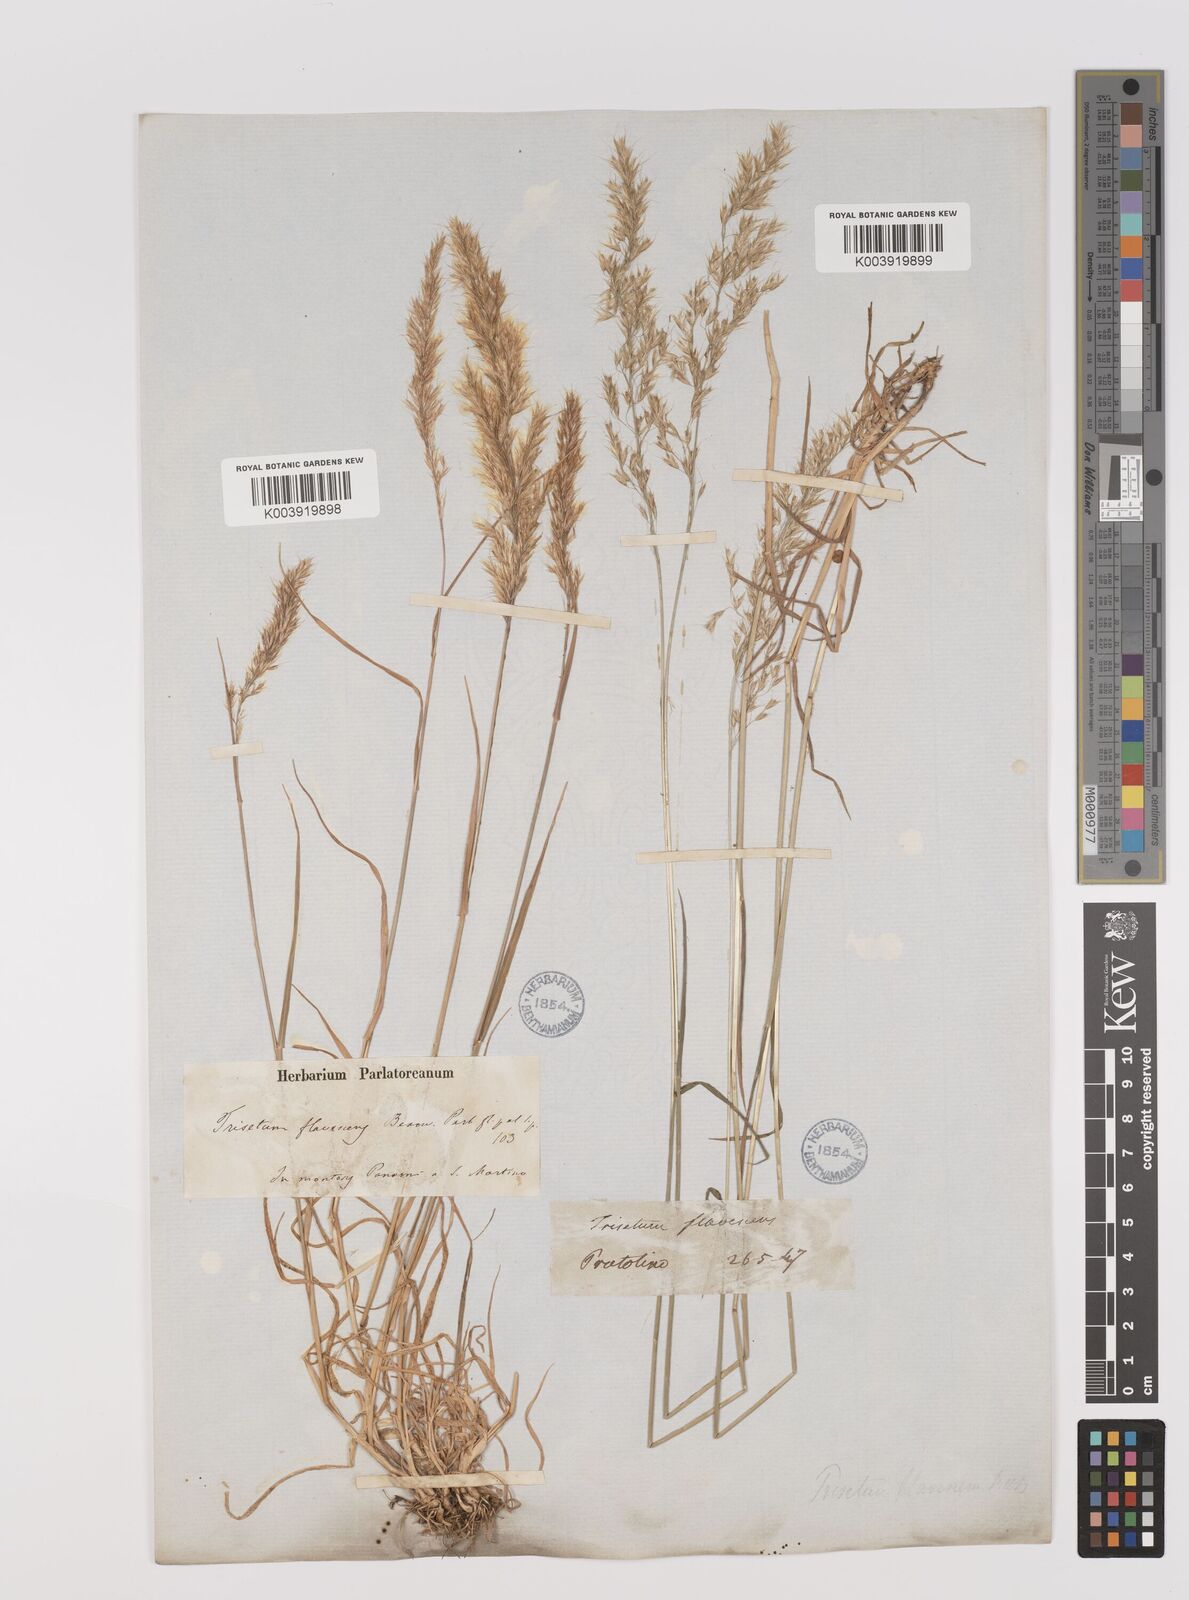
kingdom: Plantae
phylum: Tracheophyta
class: Liliopsida
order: Poales
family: Poaceae
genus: Trisetum
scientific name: Trisetum flavescens
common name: Yellow oat-grass
